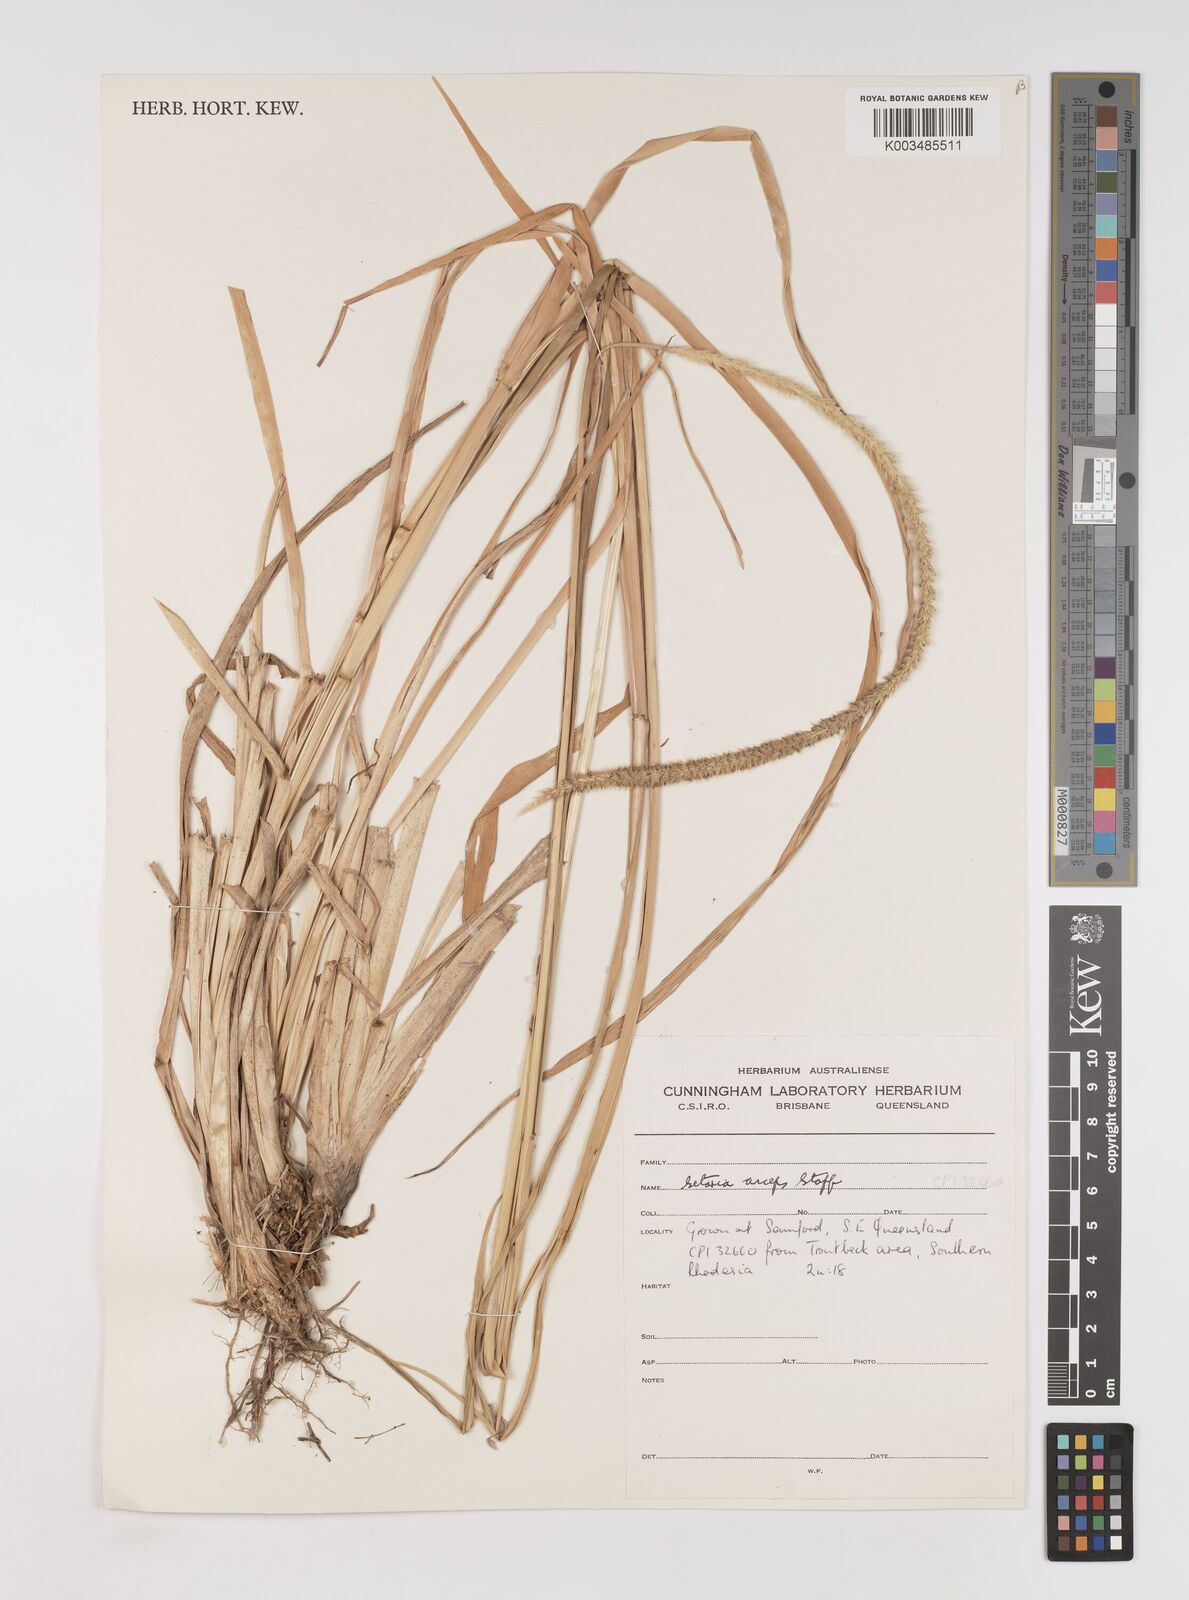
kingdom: Plantae
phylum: Tracheophyta
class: Liliopsida
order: Poales
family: Poaceae
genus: Setaria
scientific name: Setaria sphacelata
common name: African bristlegrass
